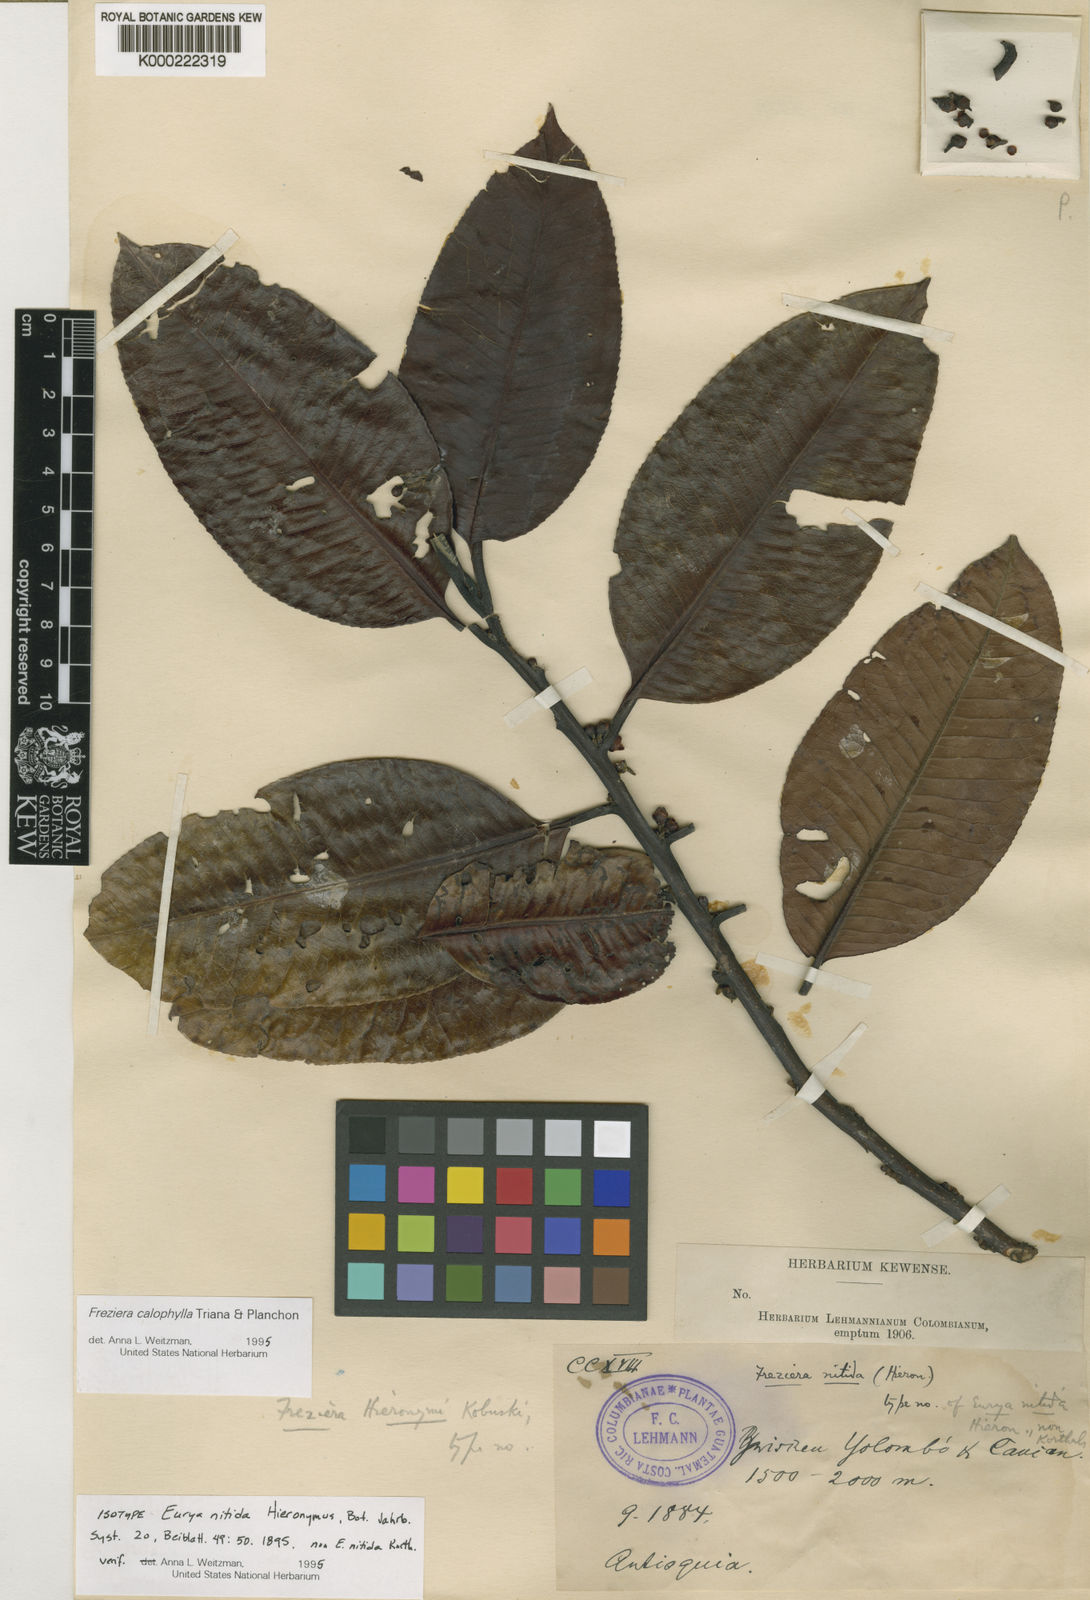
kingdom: Plantae
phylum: Tracheophyta
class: Magnoliopsida
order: Ericales
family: Pentaphylacaceae
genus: Freziera
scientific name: Freziera calophylla
